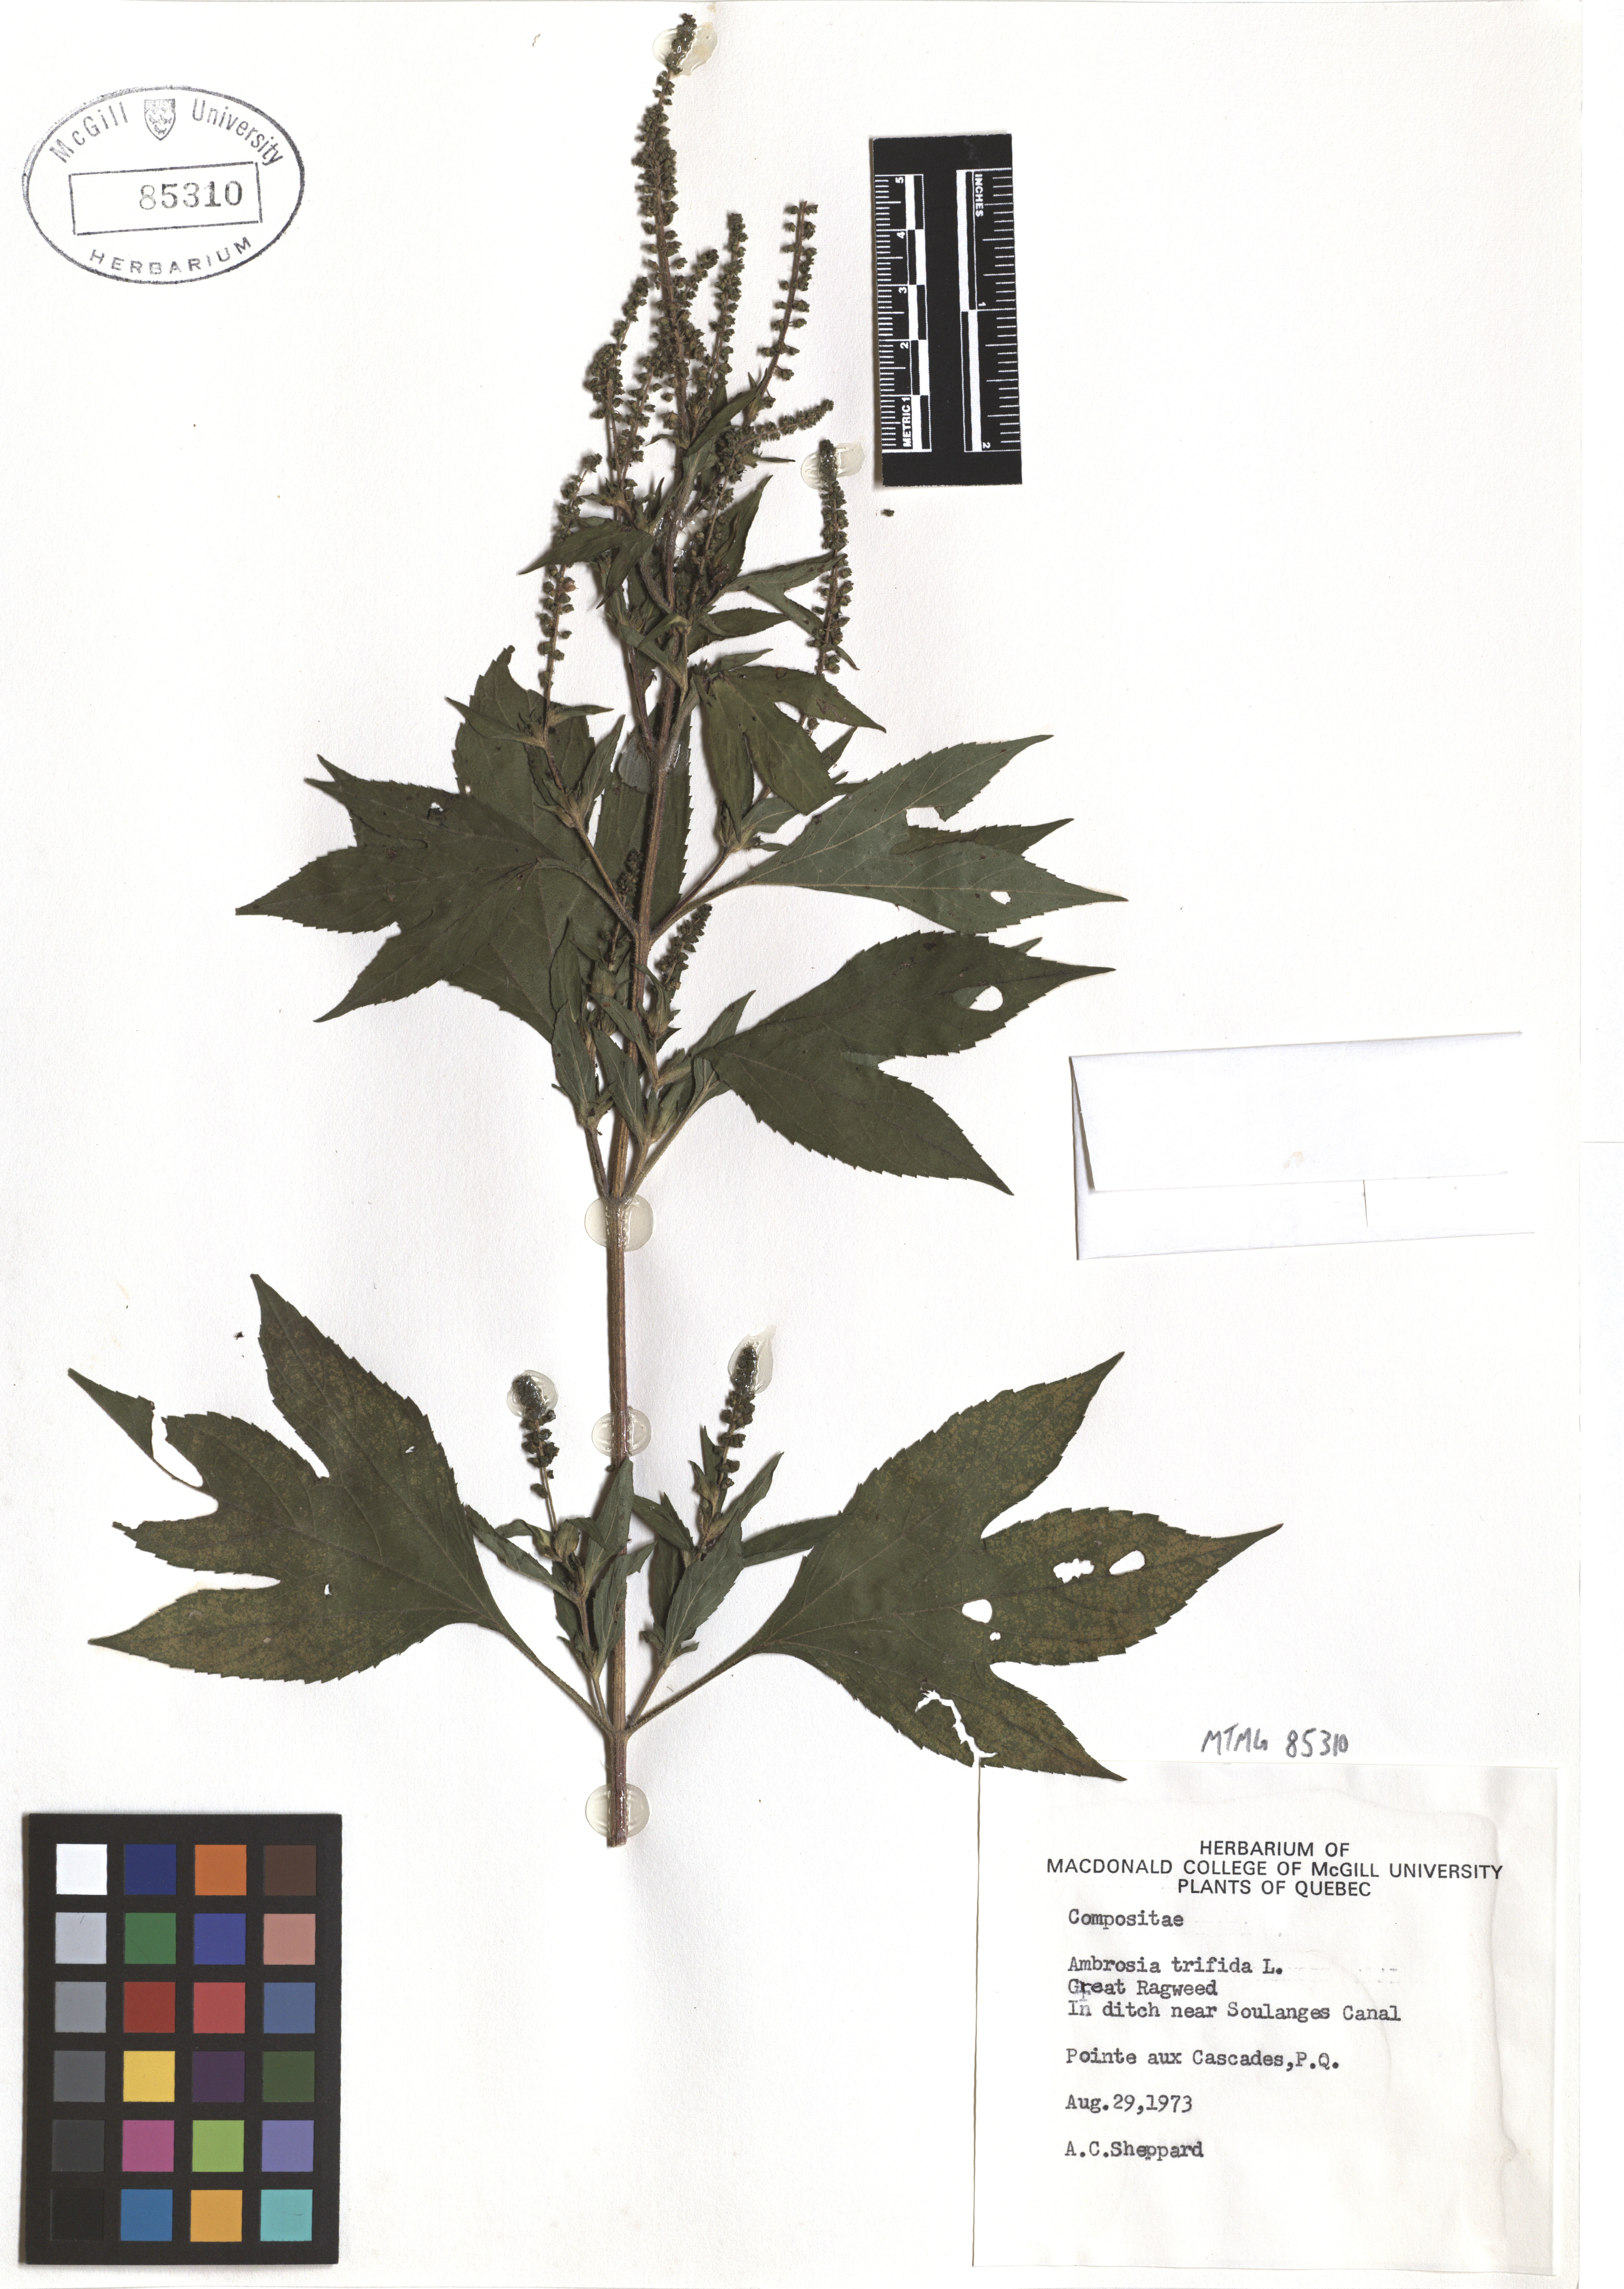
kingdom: Plantae
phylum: Tracheophyta
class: Magnoliopsida
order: Asterales
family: Asteraceae
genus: Ambrosia
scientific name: Ambrosia trifida
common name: Giant ragweed
